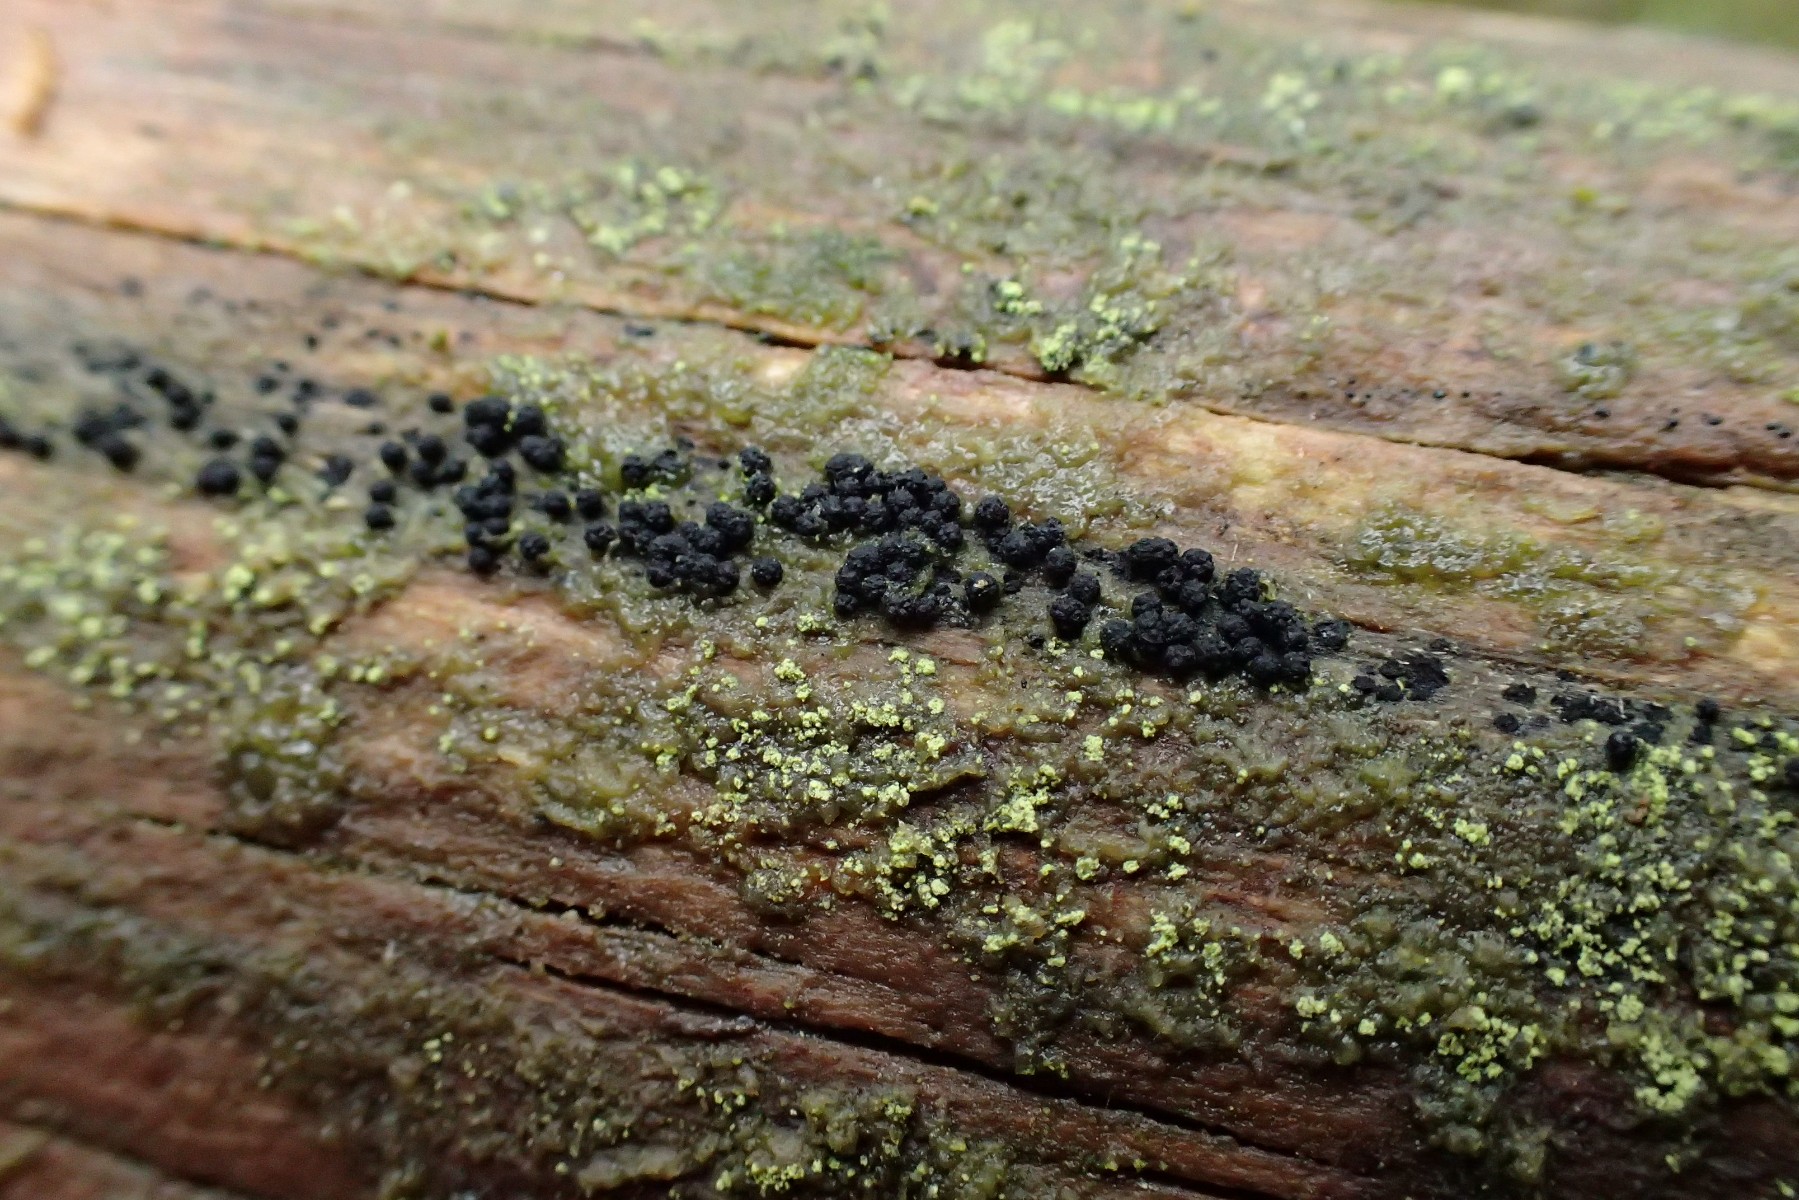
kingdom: Fungi
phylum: Ascomycota
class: Sordariomycetes
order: Coronophorales
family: Bertiaceae
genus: Bertia
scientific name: Bertia moriformis
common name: almindelig morbærkerne
